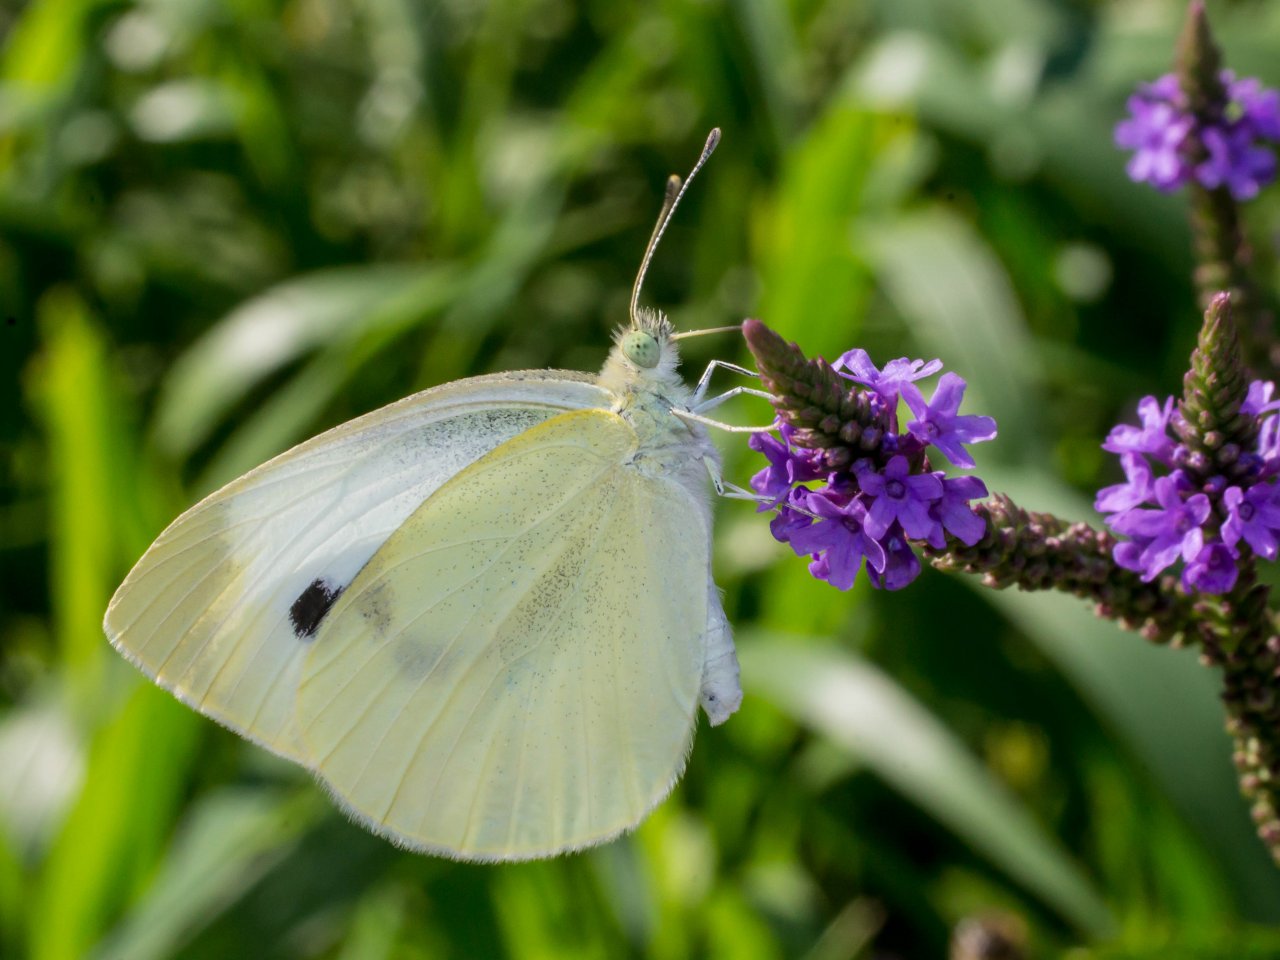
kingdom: Animalia
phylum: Arthropoda
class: Insecta
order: Lepidoptera
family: Pieridae
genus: Pieris
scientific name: Pieris rapae
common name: Cabbage White
